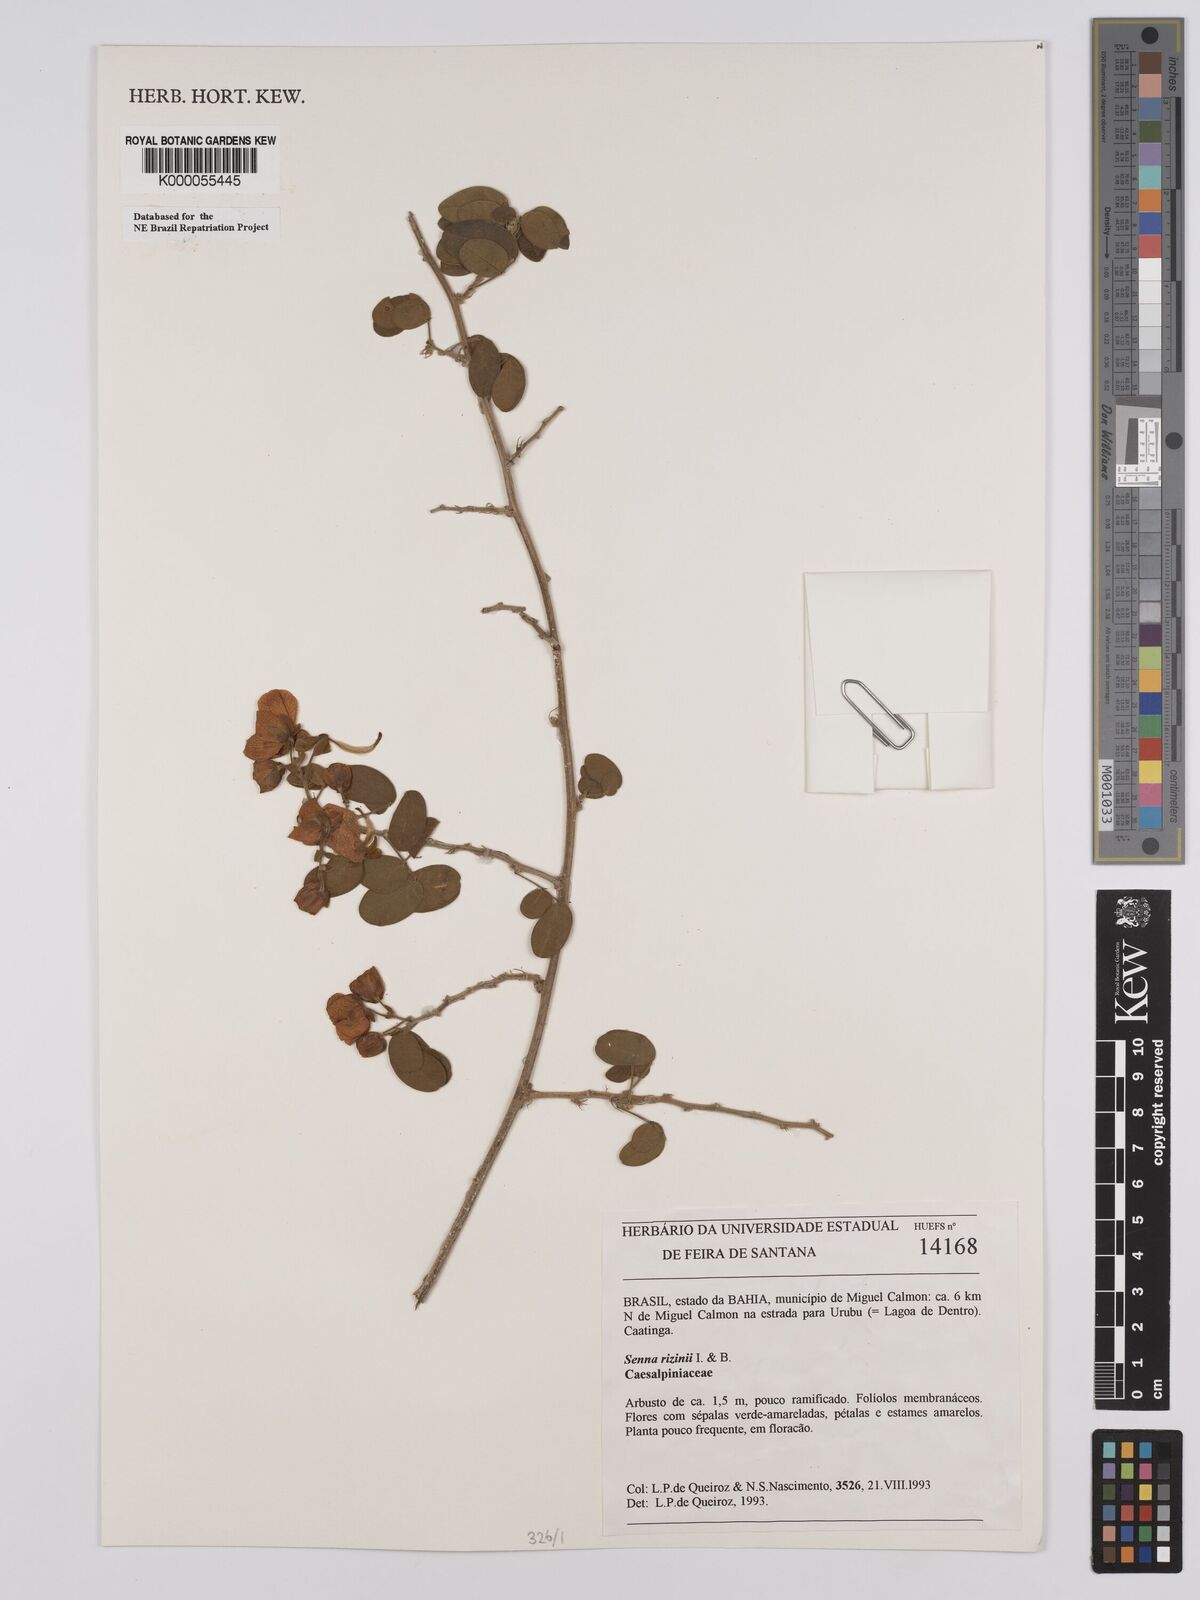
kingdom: Plantae
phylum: Tracheophyta
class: Magnoliopsida
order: Fabales
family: Fabaceae
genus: Senna
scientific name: Senna rizzinii
